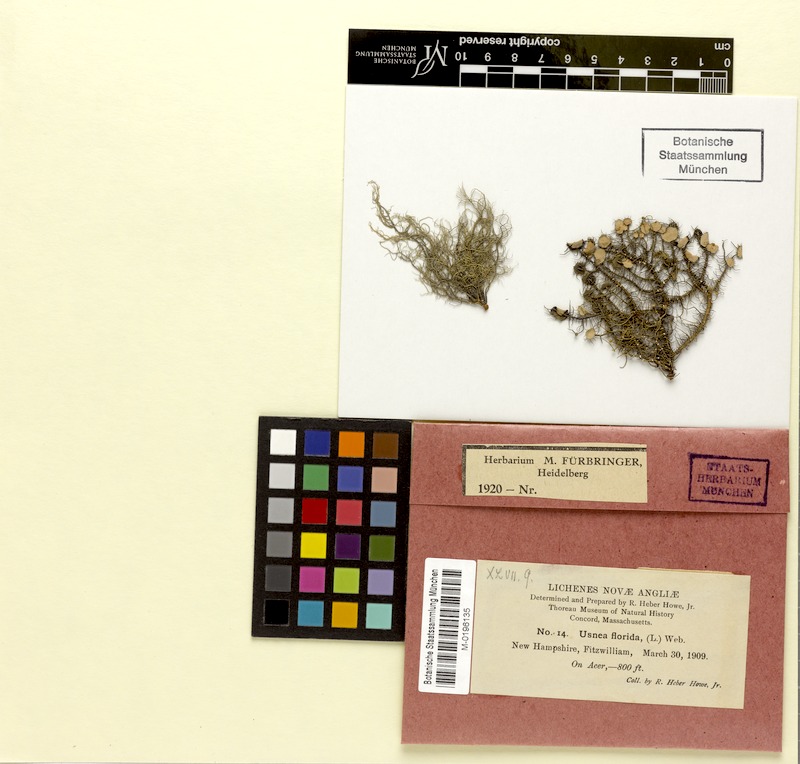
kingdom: Fungi
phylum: Ascomycota
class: Lecanoromycetes
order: Lecanorales
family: Parmeliaceae
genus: Usnea
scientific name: Usnea florida
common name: Witches' whiskers lichen
